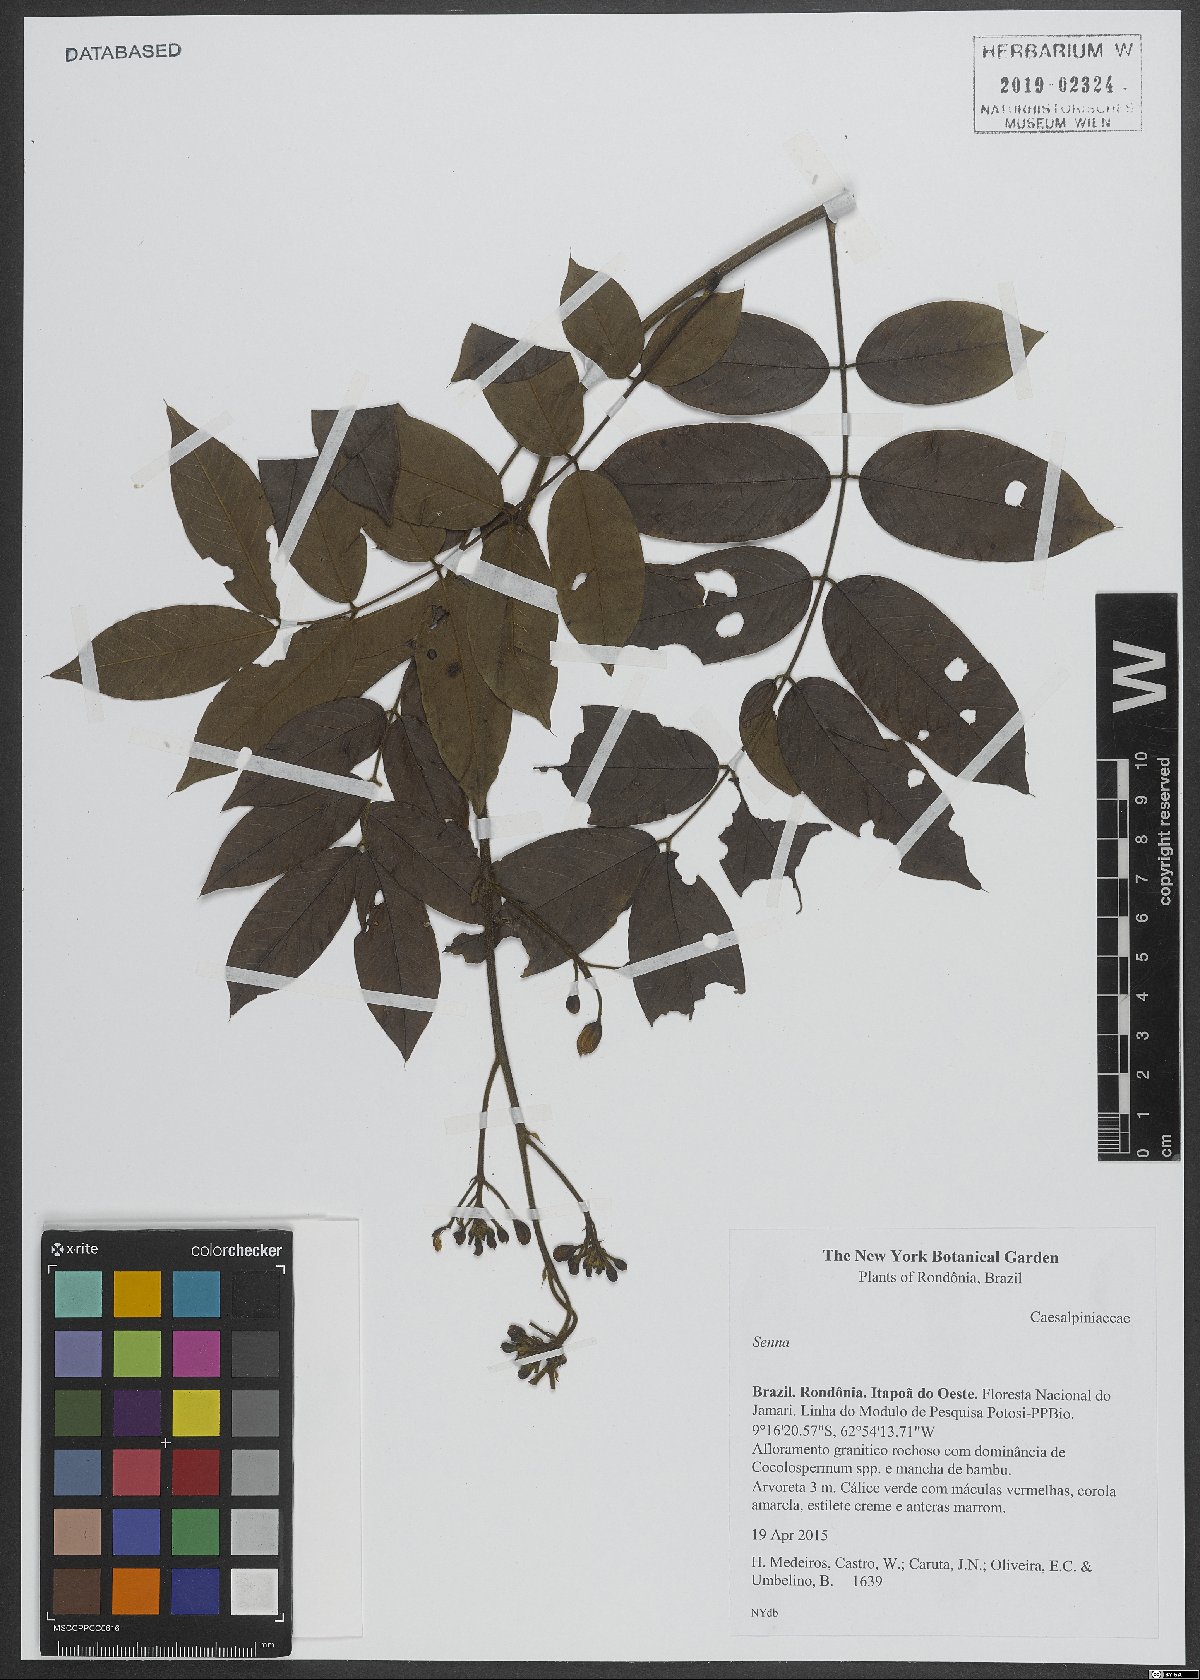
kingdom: Plantae
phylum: Tracheophyta
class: Magnoliopsida
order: Fabales
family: Fabaceae
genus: Senna
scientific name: Senna
